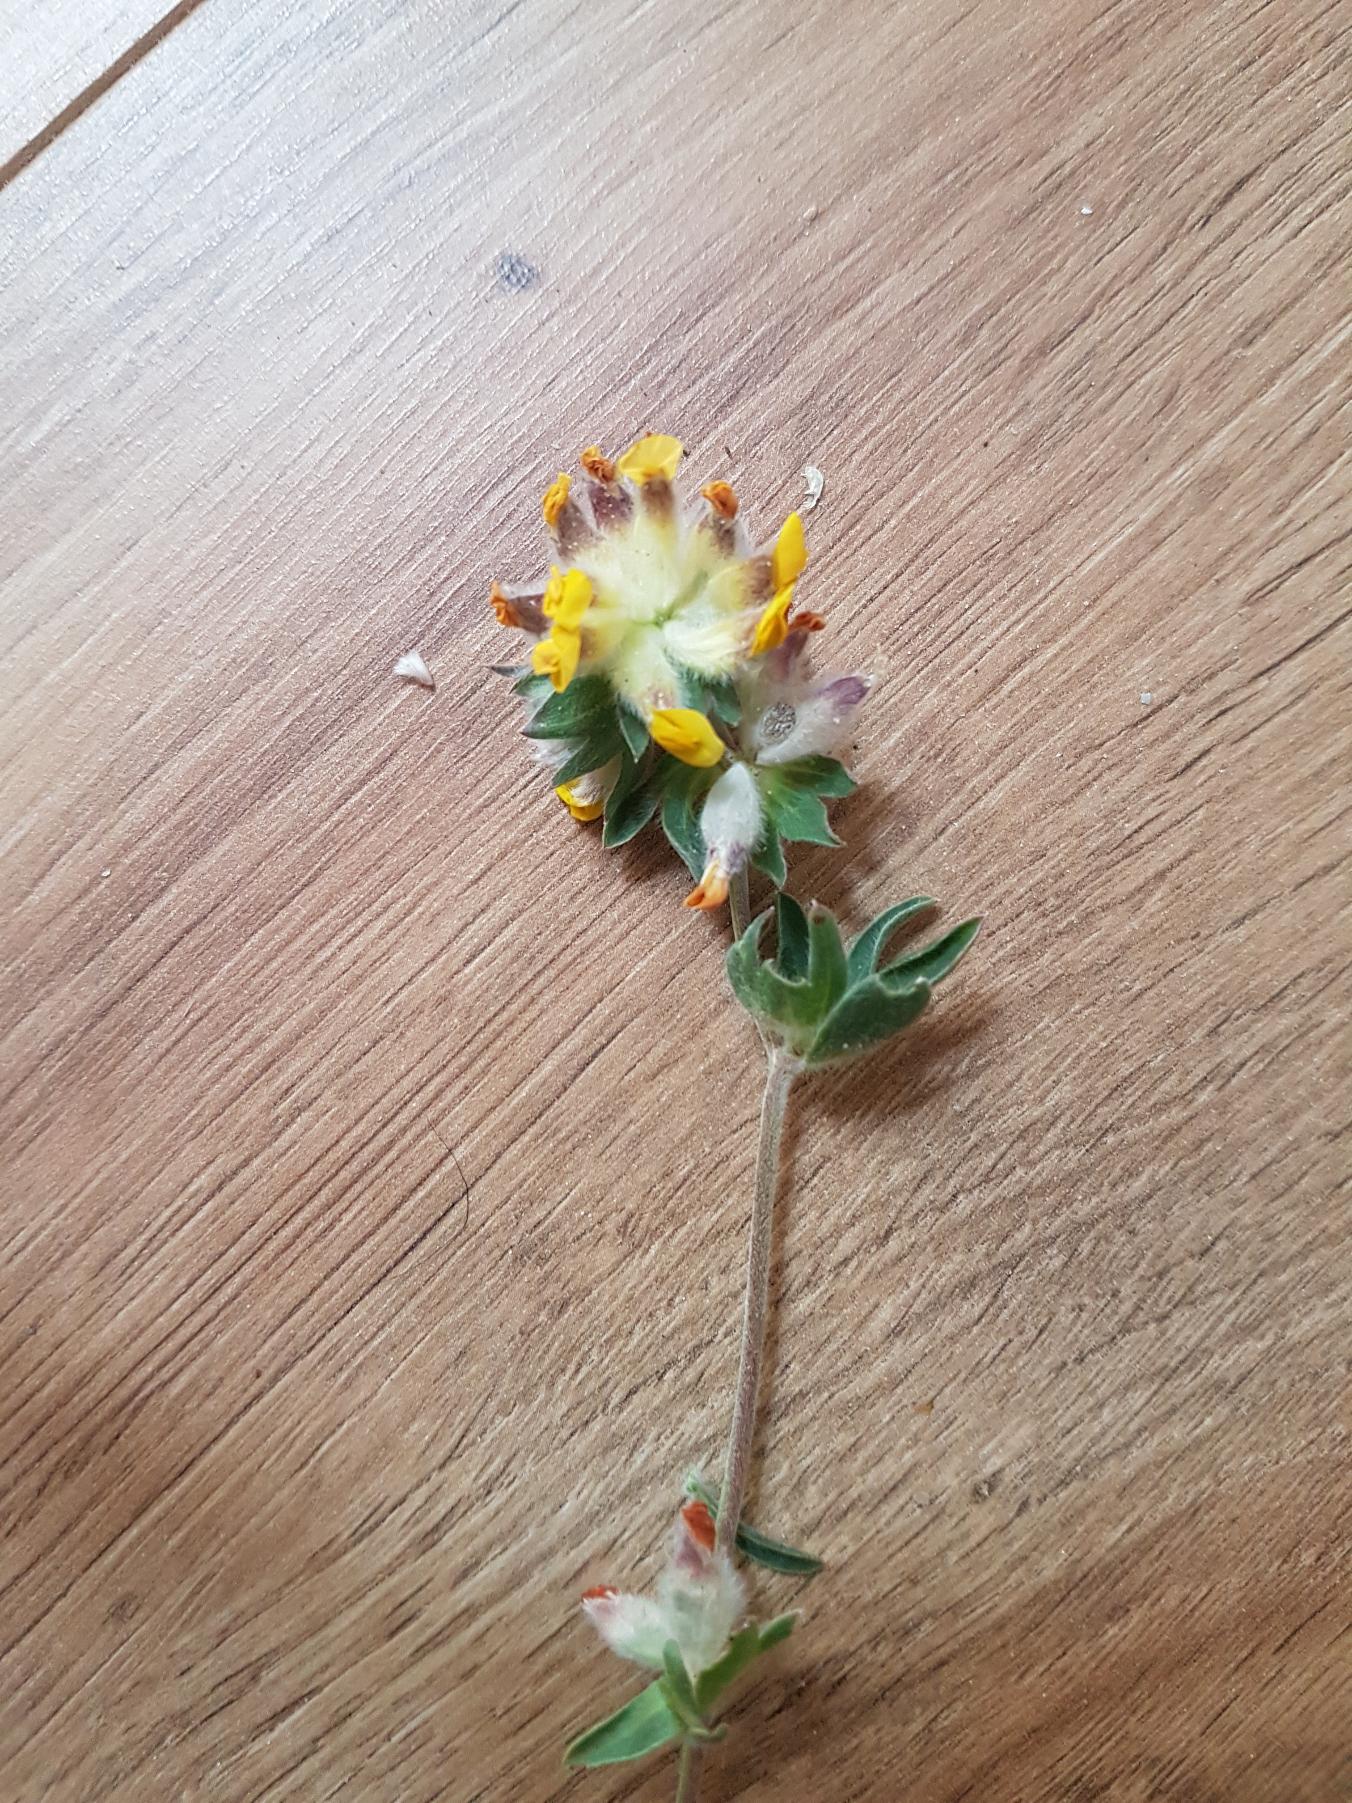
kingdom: Plantae
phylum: Tracheophyta
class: Magnoliopsida
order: Fabales
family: Fabaceae
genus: Anthyllis
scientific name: Anthyllis vulneraria
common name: Rundbælg
